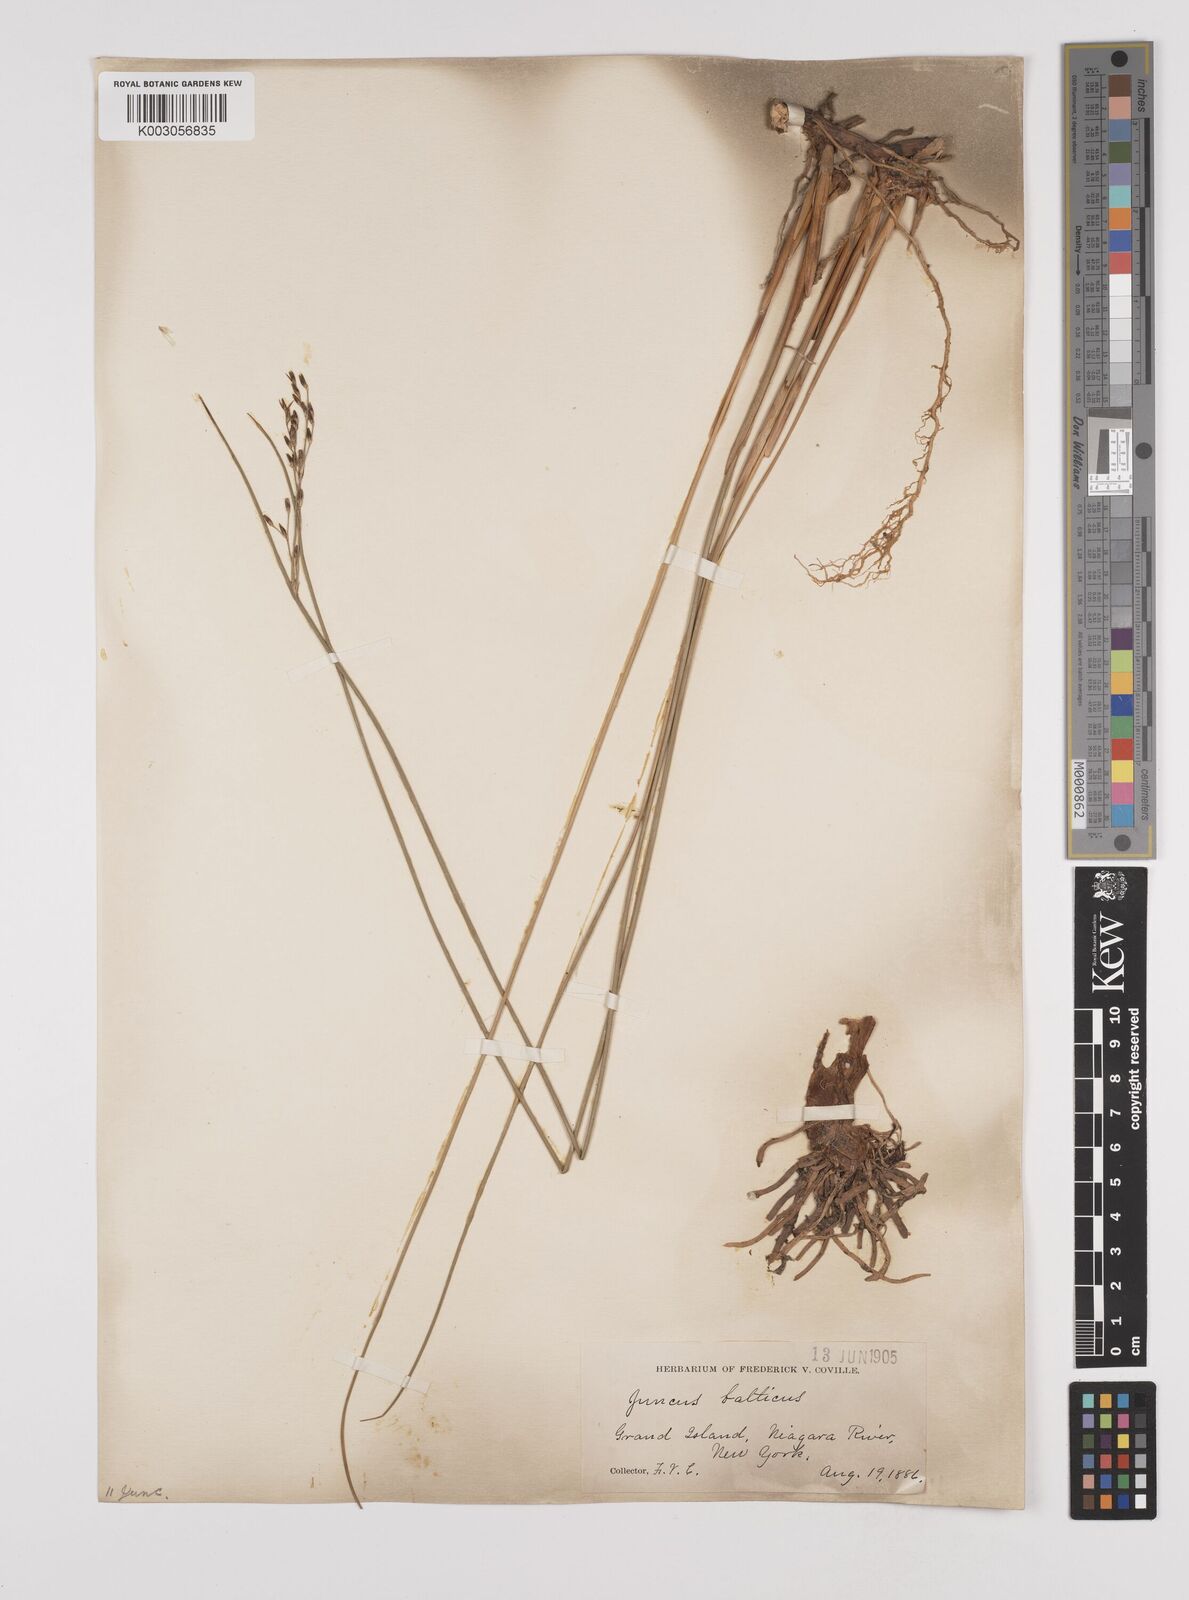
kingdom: Plantae
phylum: Tracheophyta
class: Liliopsida
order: Poales
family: Juncaceae
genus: Juncus
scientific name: Juncus balticus
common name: Baltic rush
